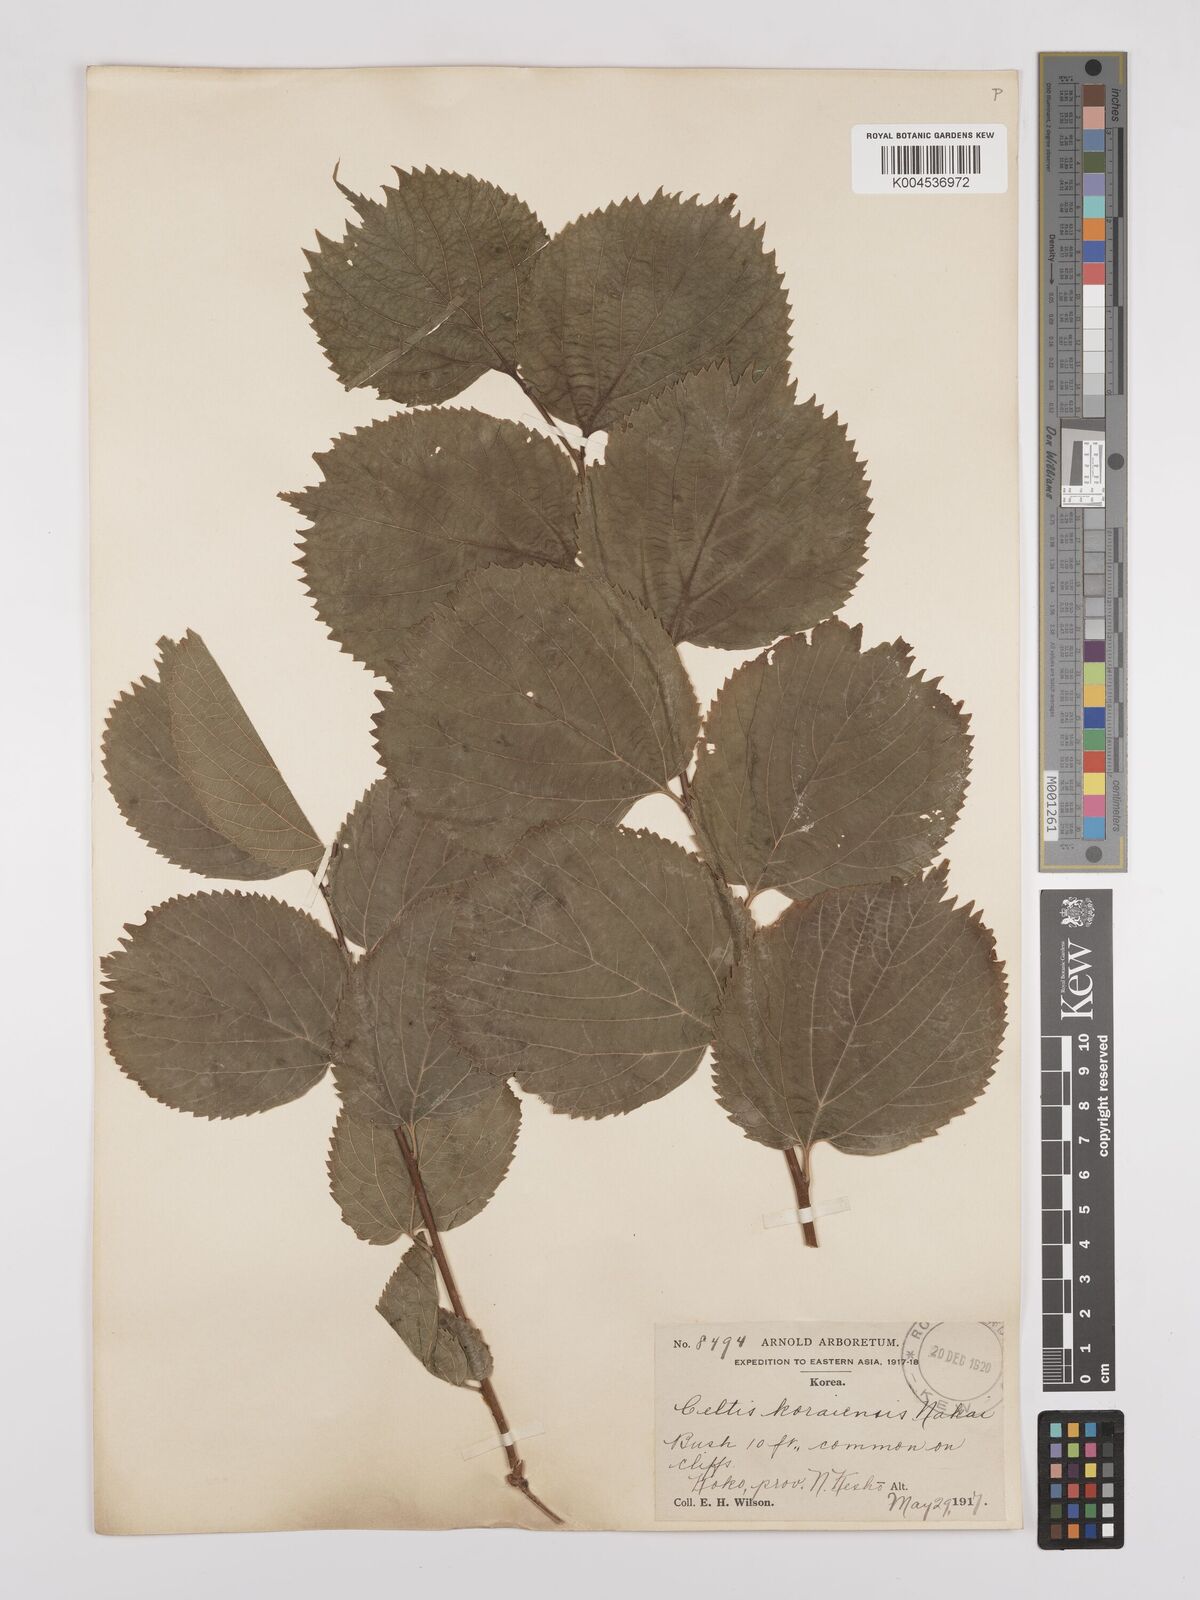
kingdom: Plantae
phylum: Tracheophyta
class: Magnoliopsida
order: Rosales
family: Cannabaceae
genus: Celtis
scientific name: Celtis koraiensis
